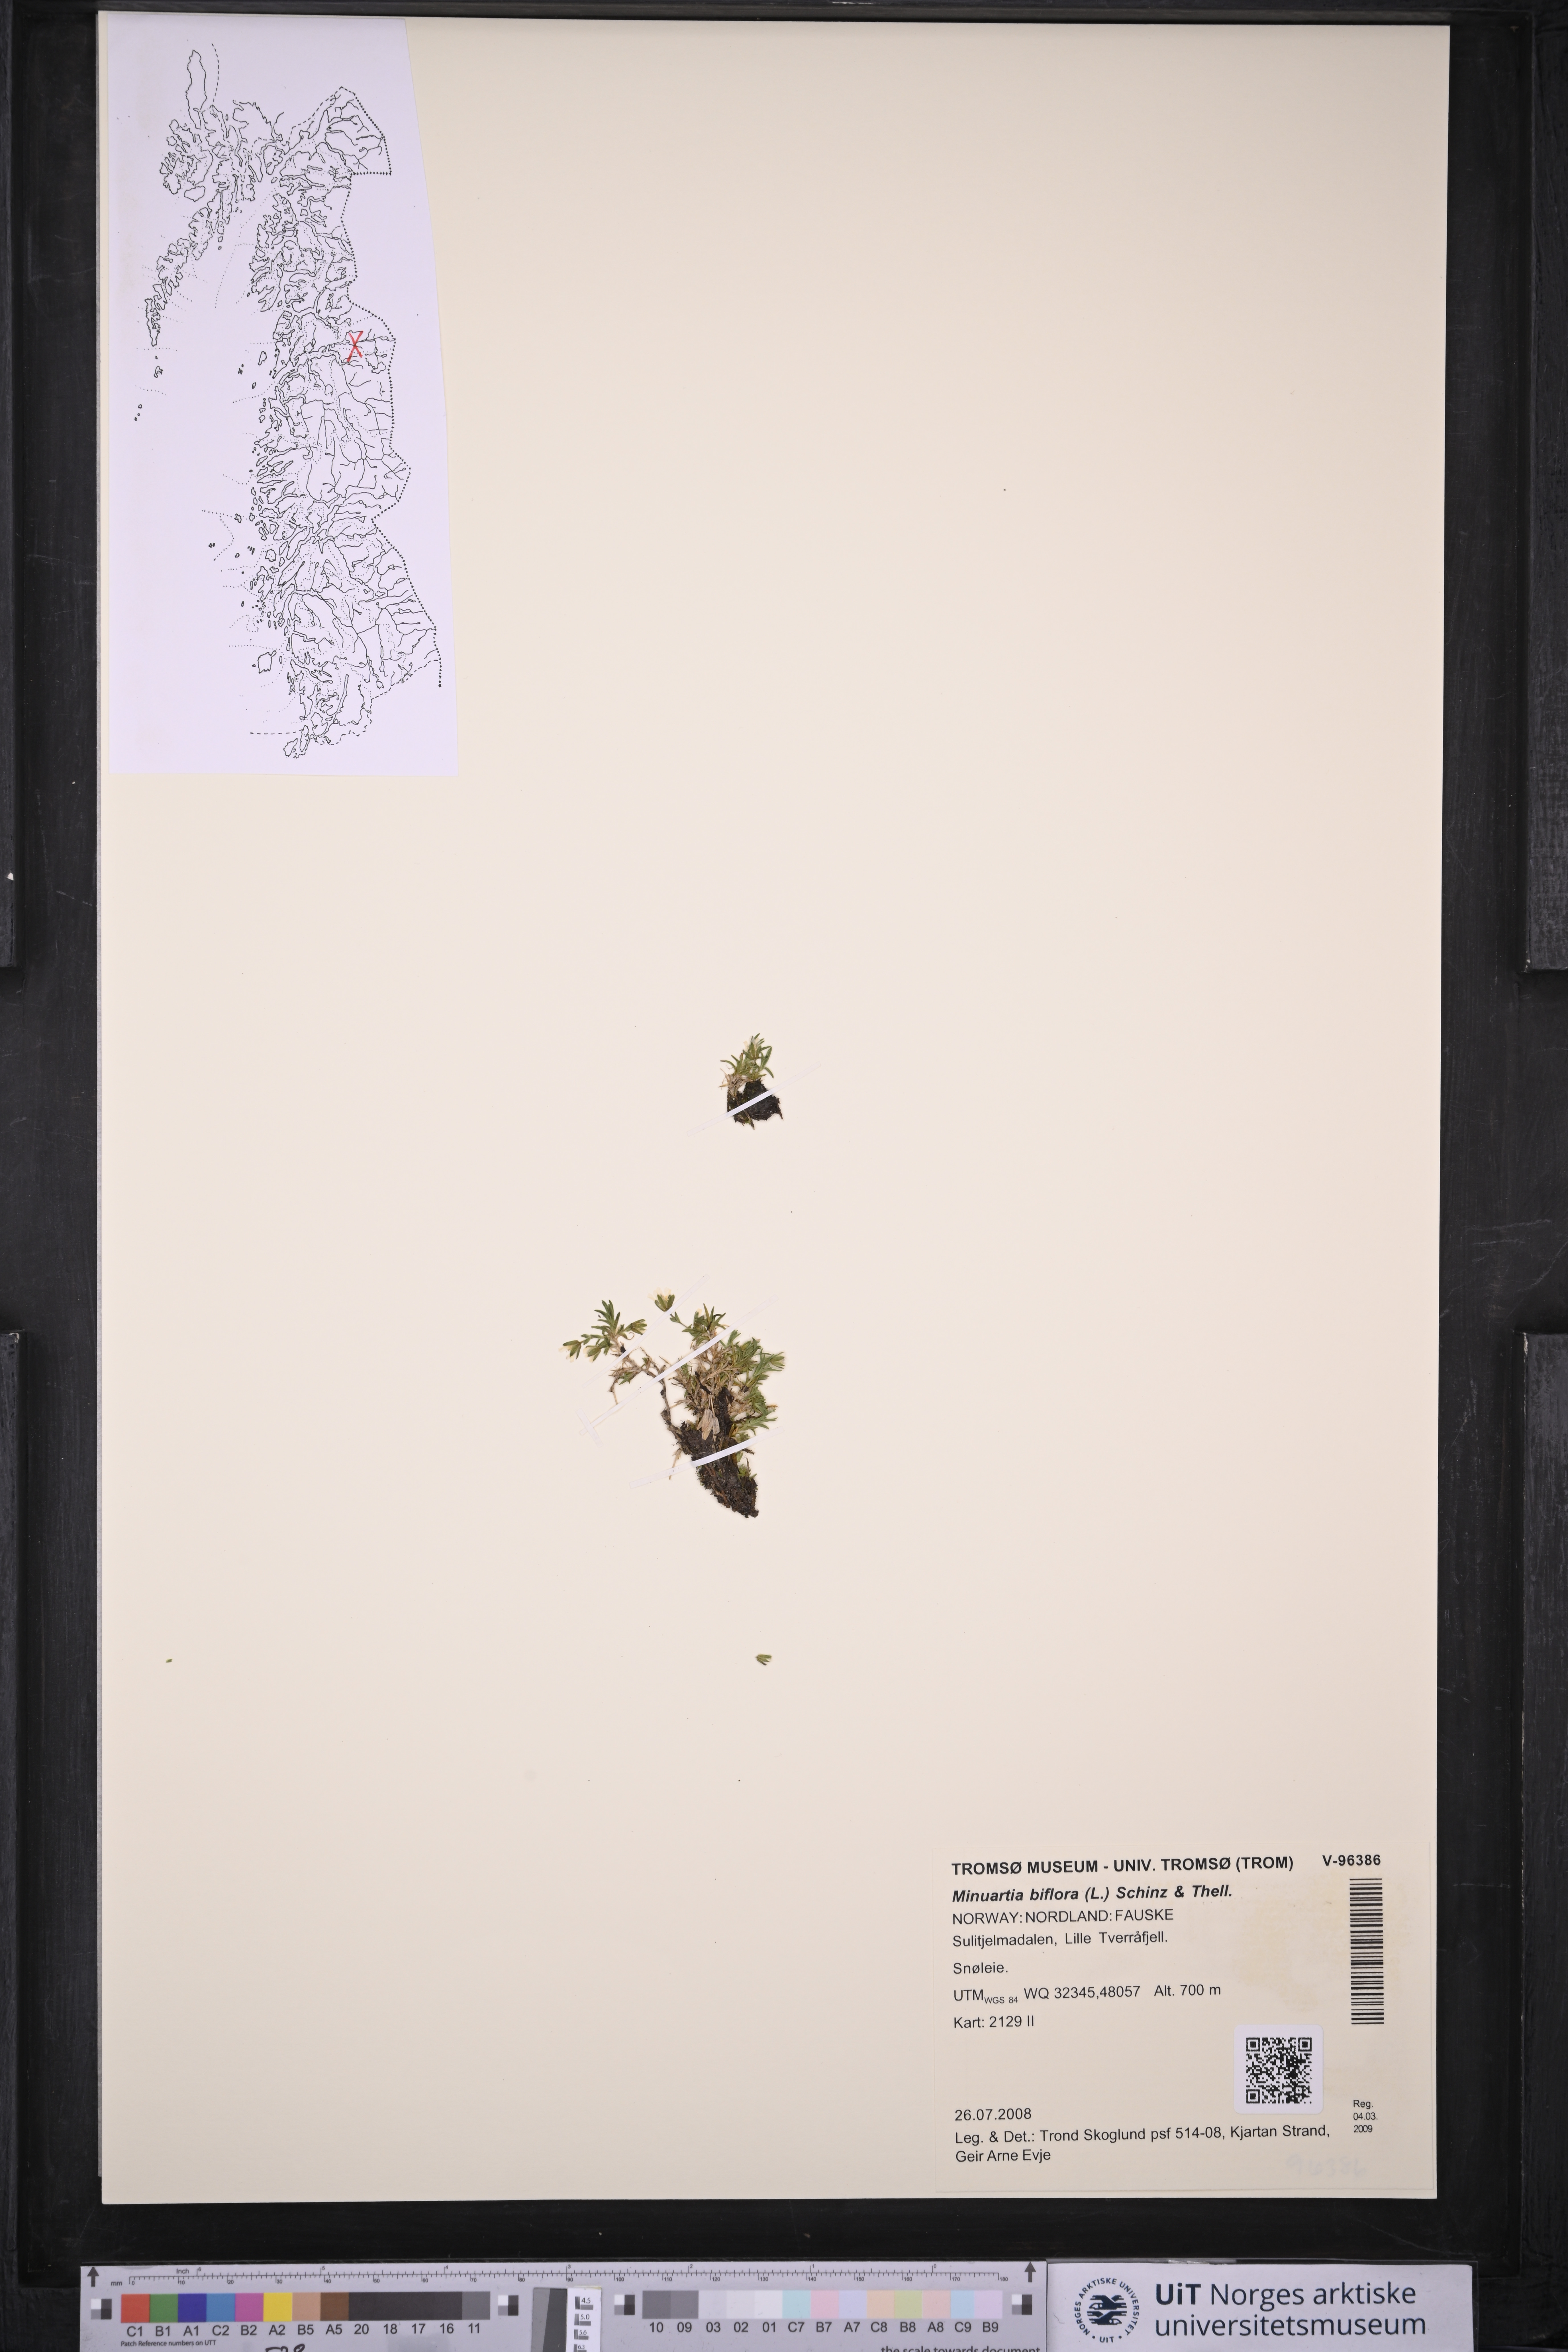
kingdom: Plantae
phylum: Tracheophyta
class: Magnoliopsida
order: Caryophyllales
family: Caryophyllaceae
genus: Cherleria
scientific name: Cherleria biflora
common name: Mountain sandwort
